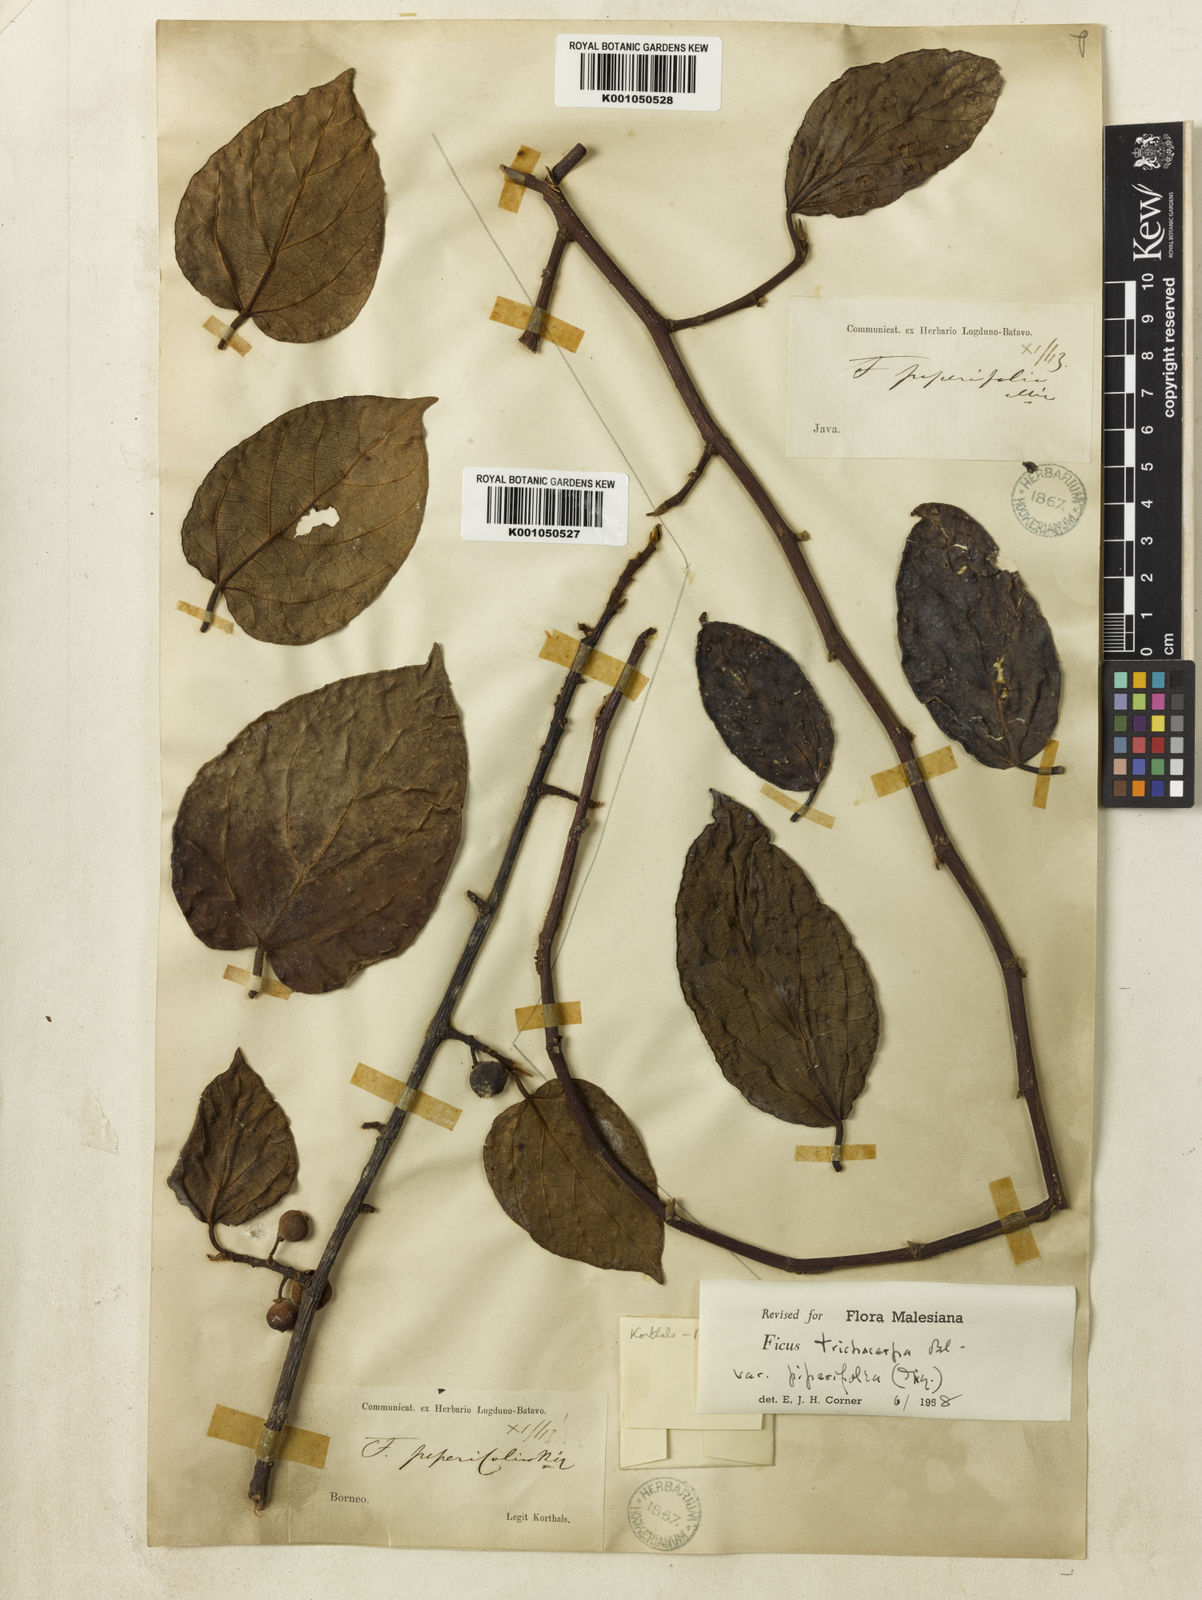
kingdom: Plantae
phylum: Tracheophyta
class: Magnoliopsida
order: Rosales
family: Moraceae
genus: Ficus
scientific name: Ficus trichocarpa
